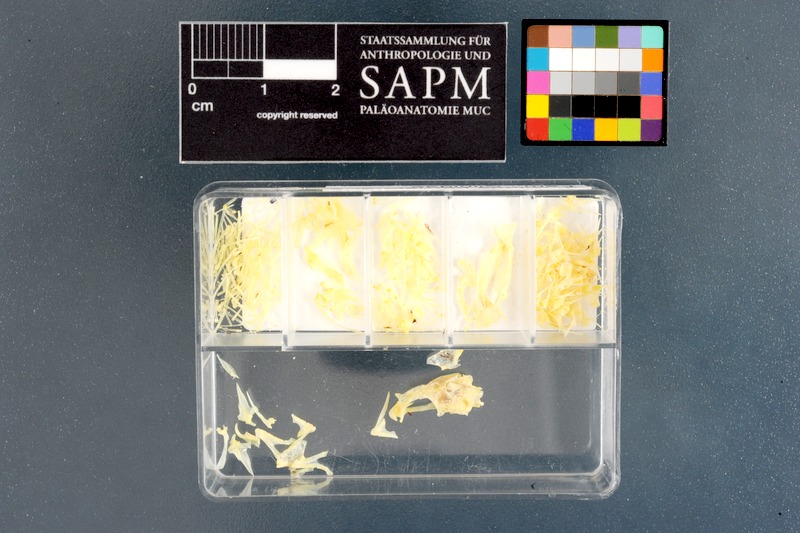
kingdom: Animalia
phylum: Chordata
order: Perciformes
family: Clinidae
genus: Clinus
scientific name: Clinus berrisfordi
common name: Onrust klipfish
